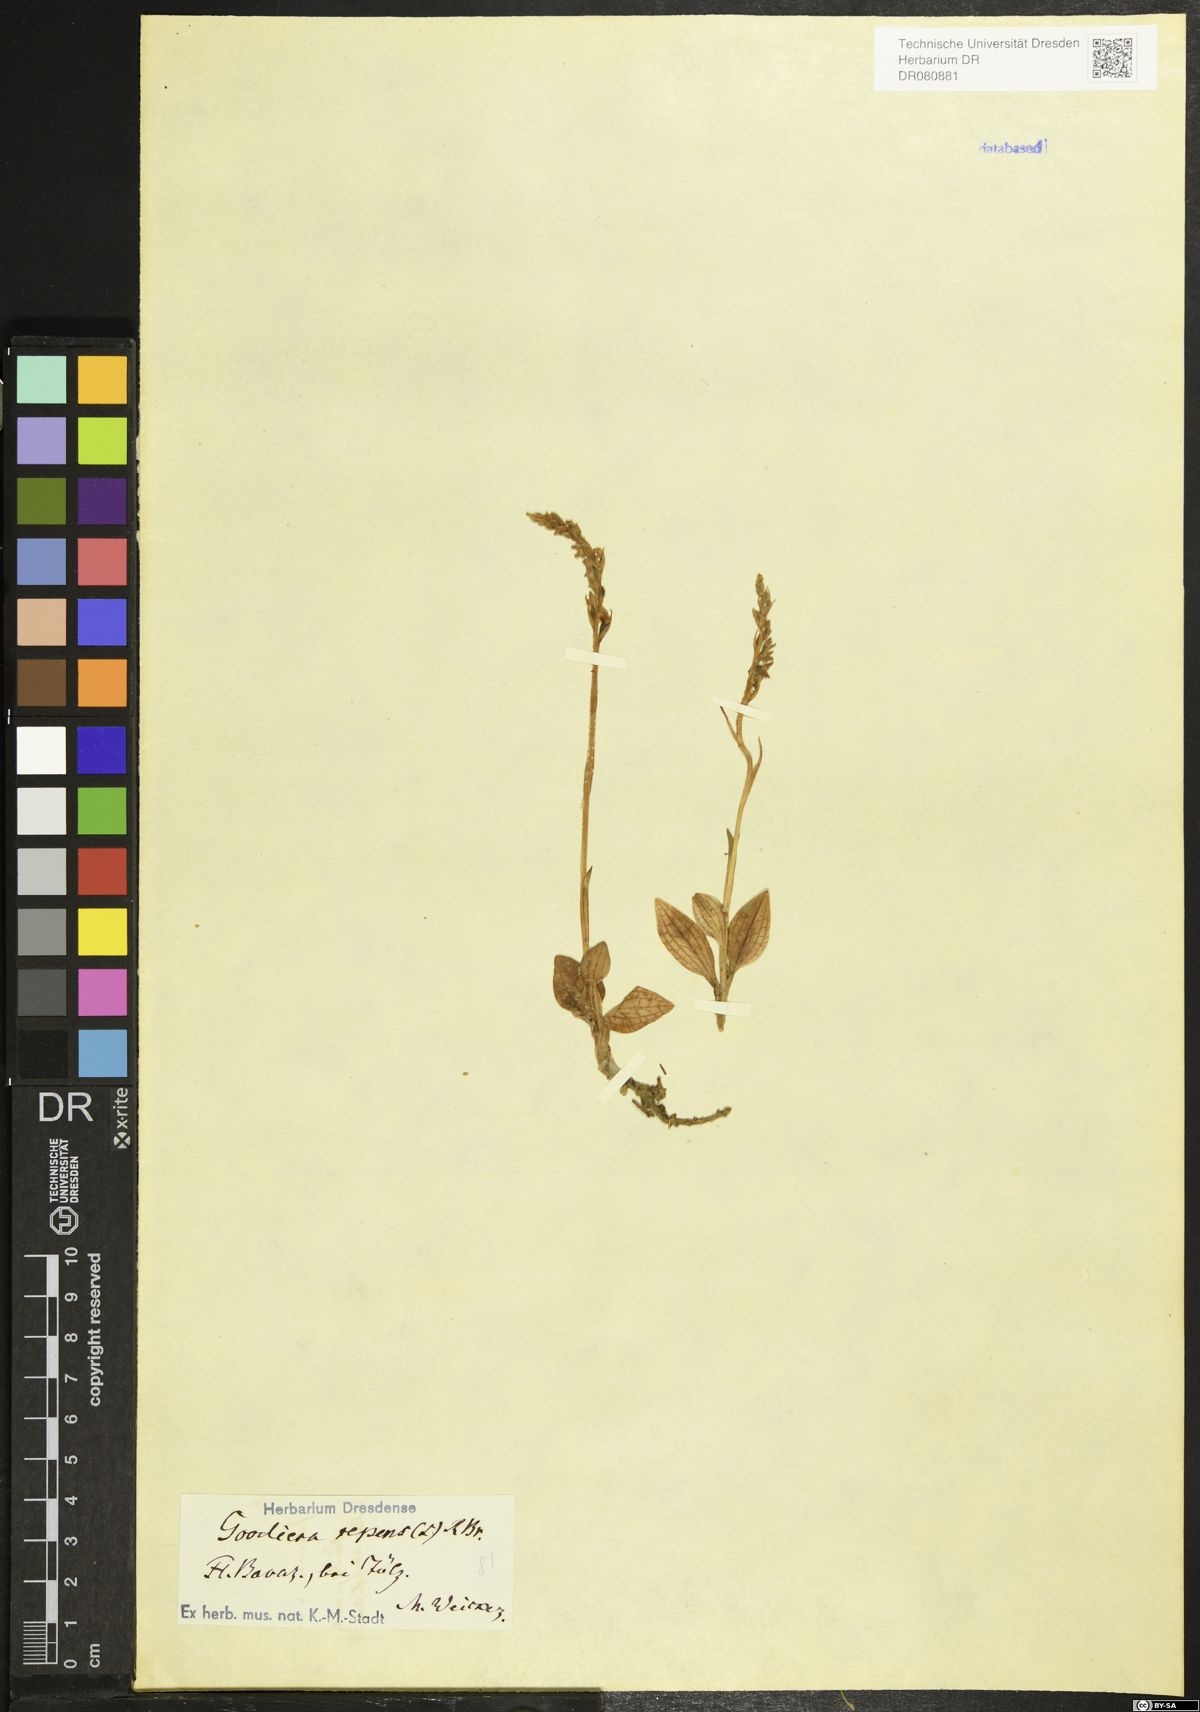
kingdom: Plantae
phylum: Tracheophyta
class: Liliopsida
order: Asparagales
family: Orchidaceae
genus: Goodyera
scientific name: Goodyera repens
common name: Creeping lady's-tresses
